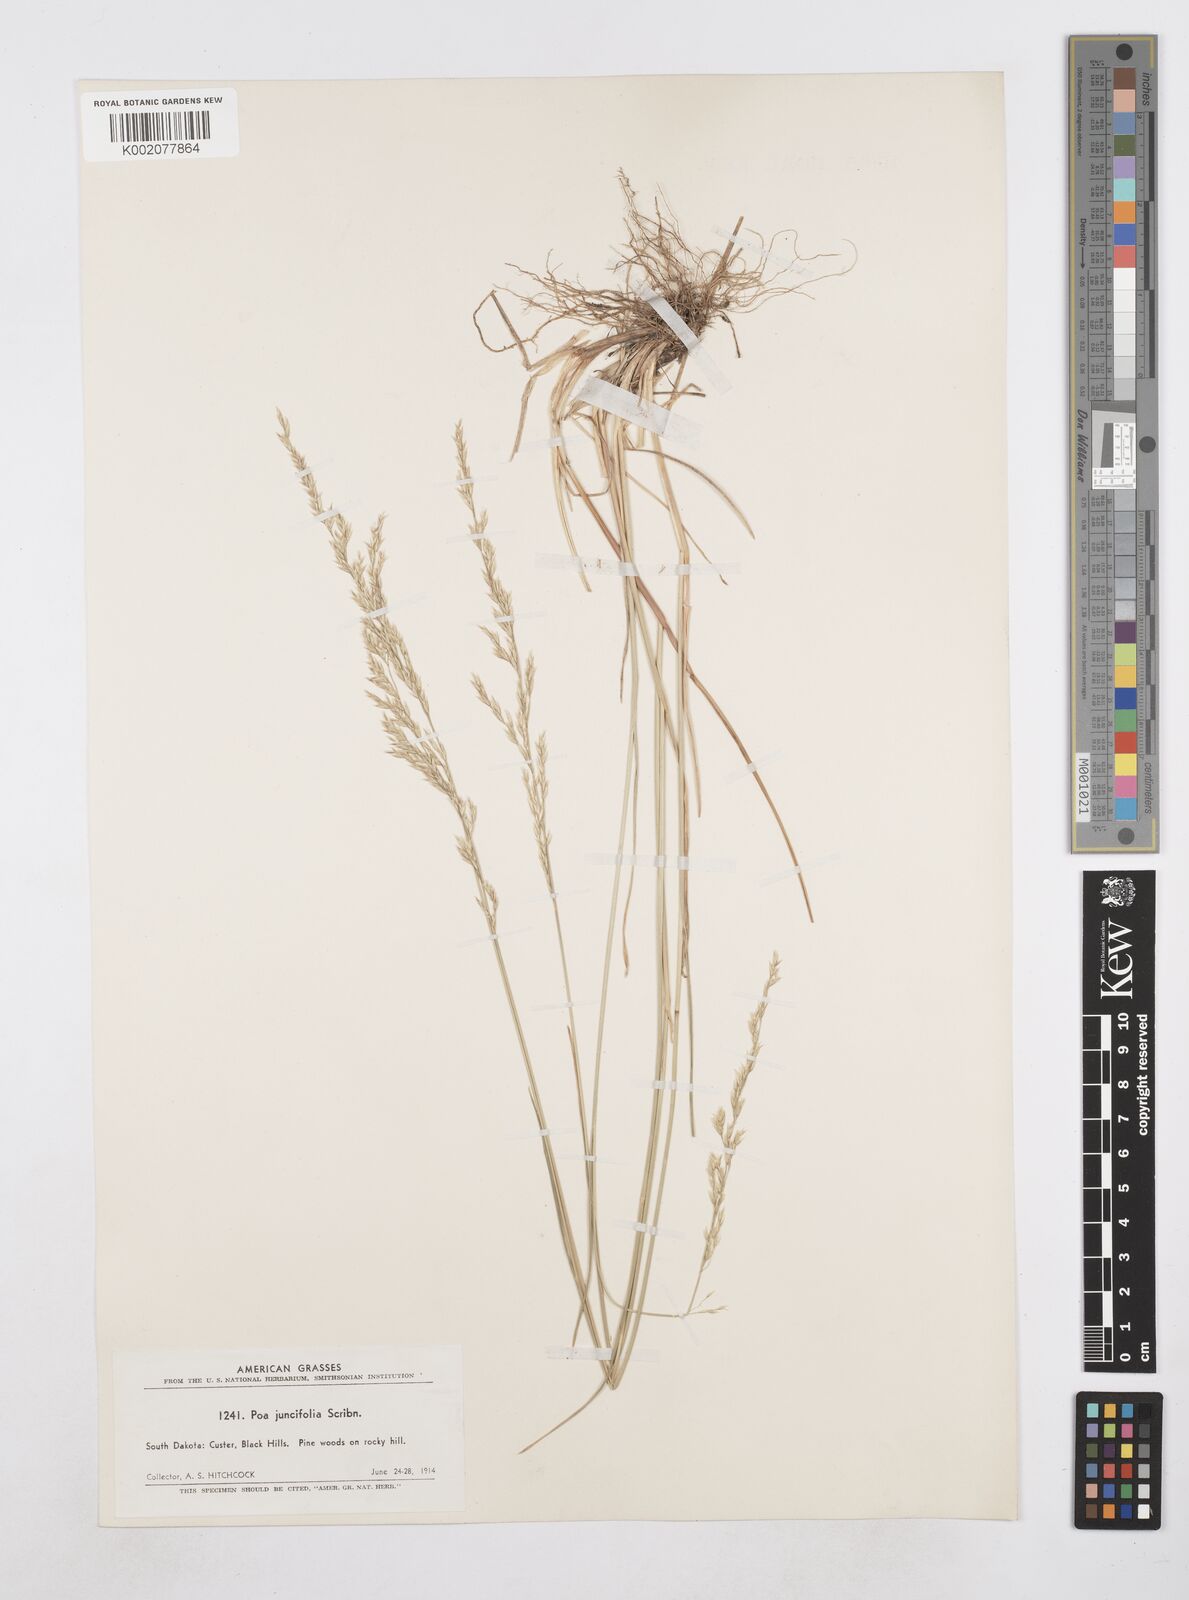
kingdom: Plantae
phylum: Tracheophyta
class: Liliopsida
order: Poales
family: Poaceae
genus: Poa
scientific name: Poa secunda
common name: Sandberg bluegrass
